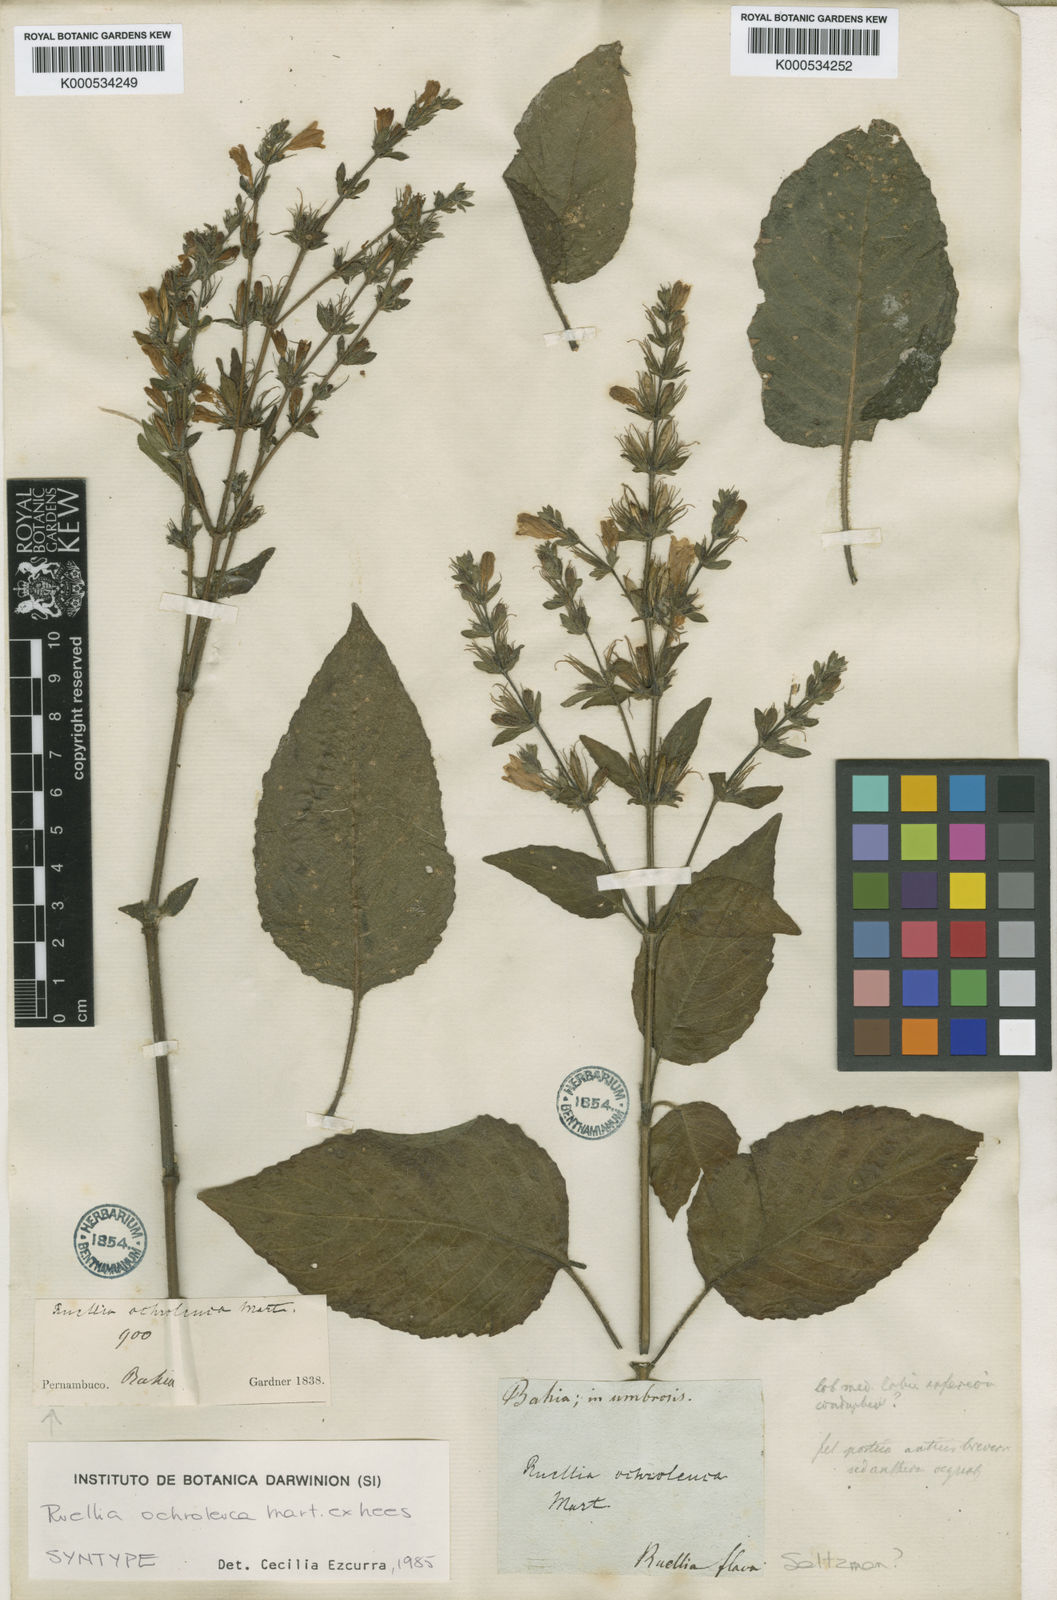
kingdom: Plantae
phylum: Tracheophyta
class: Magnoliopsida
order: Lamiales
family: Acanthaceae
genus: Ruellia
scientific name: Ruellia ochroleuca
